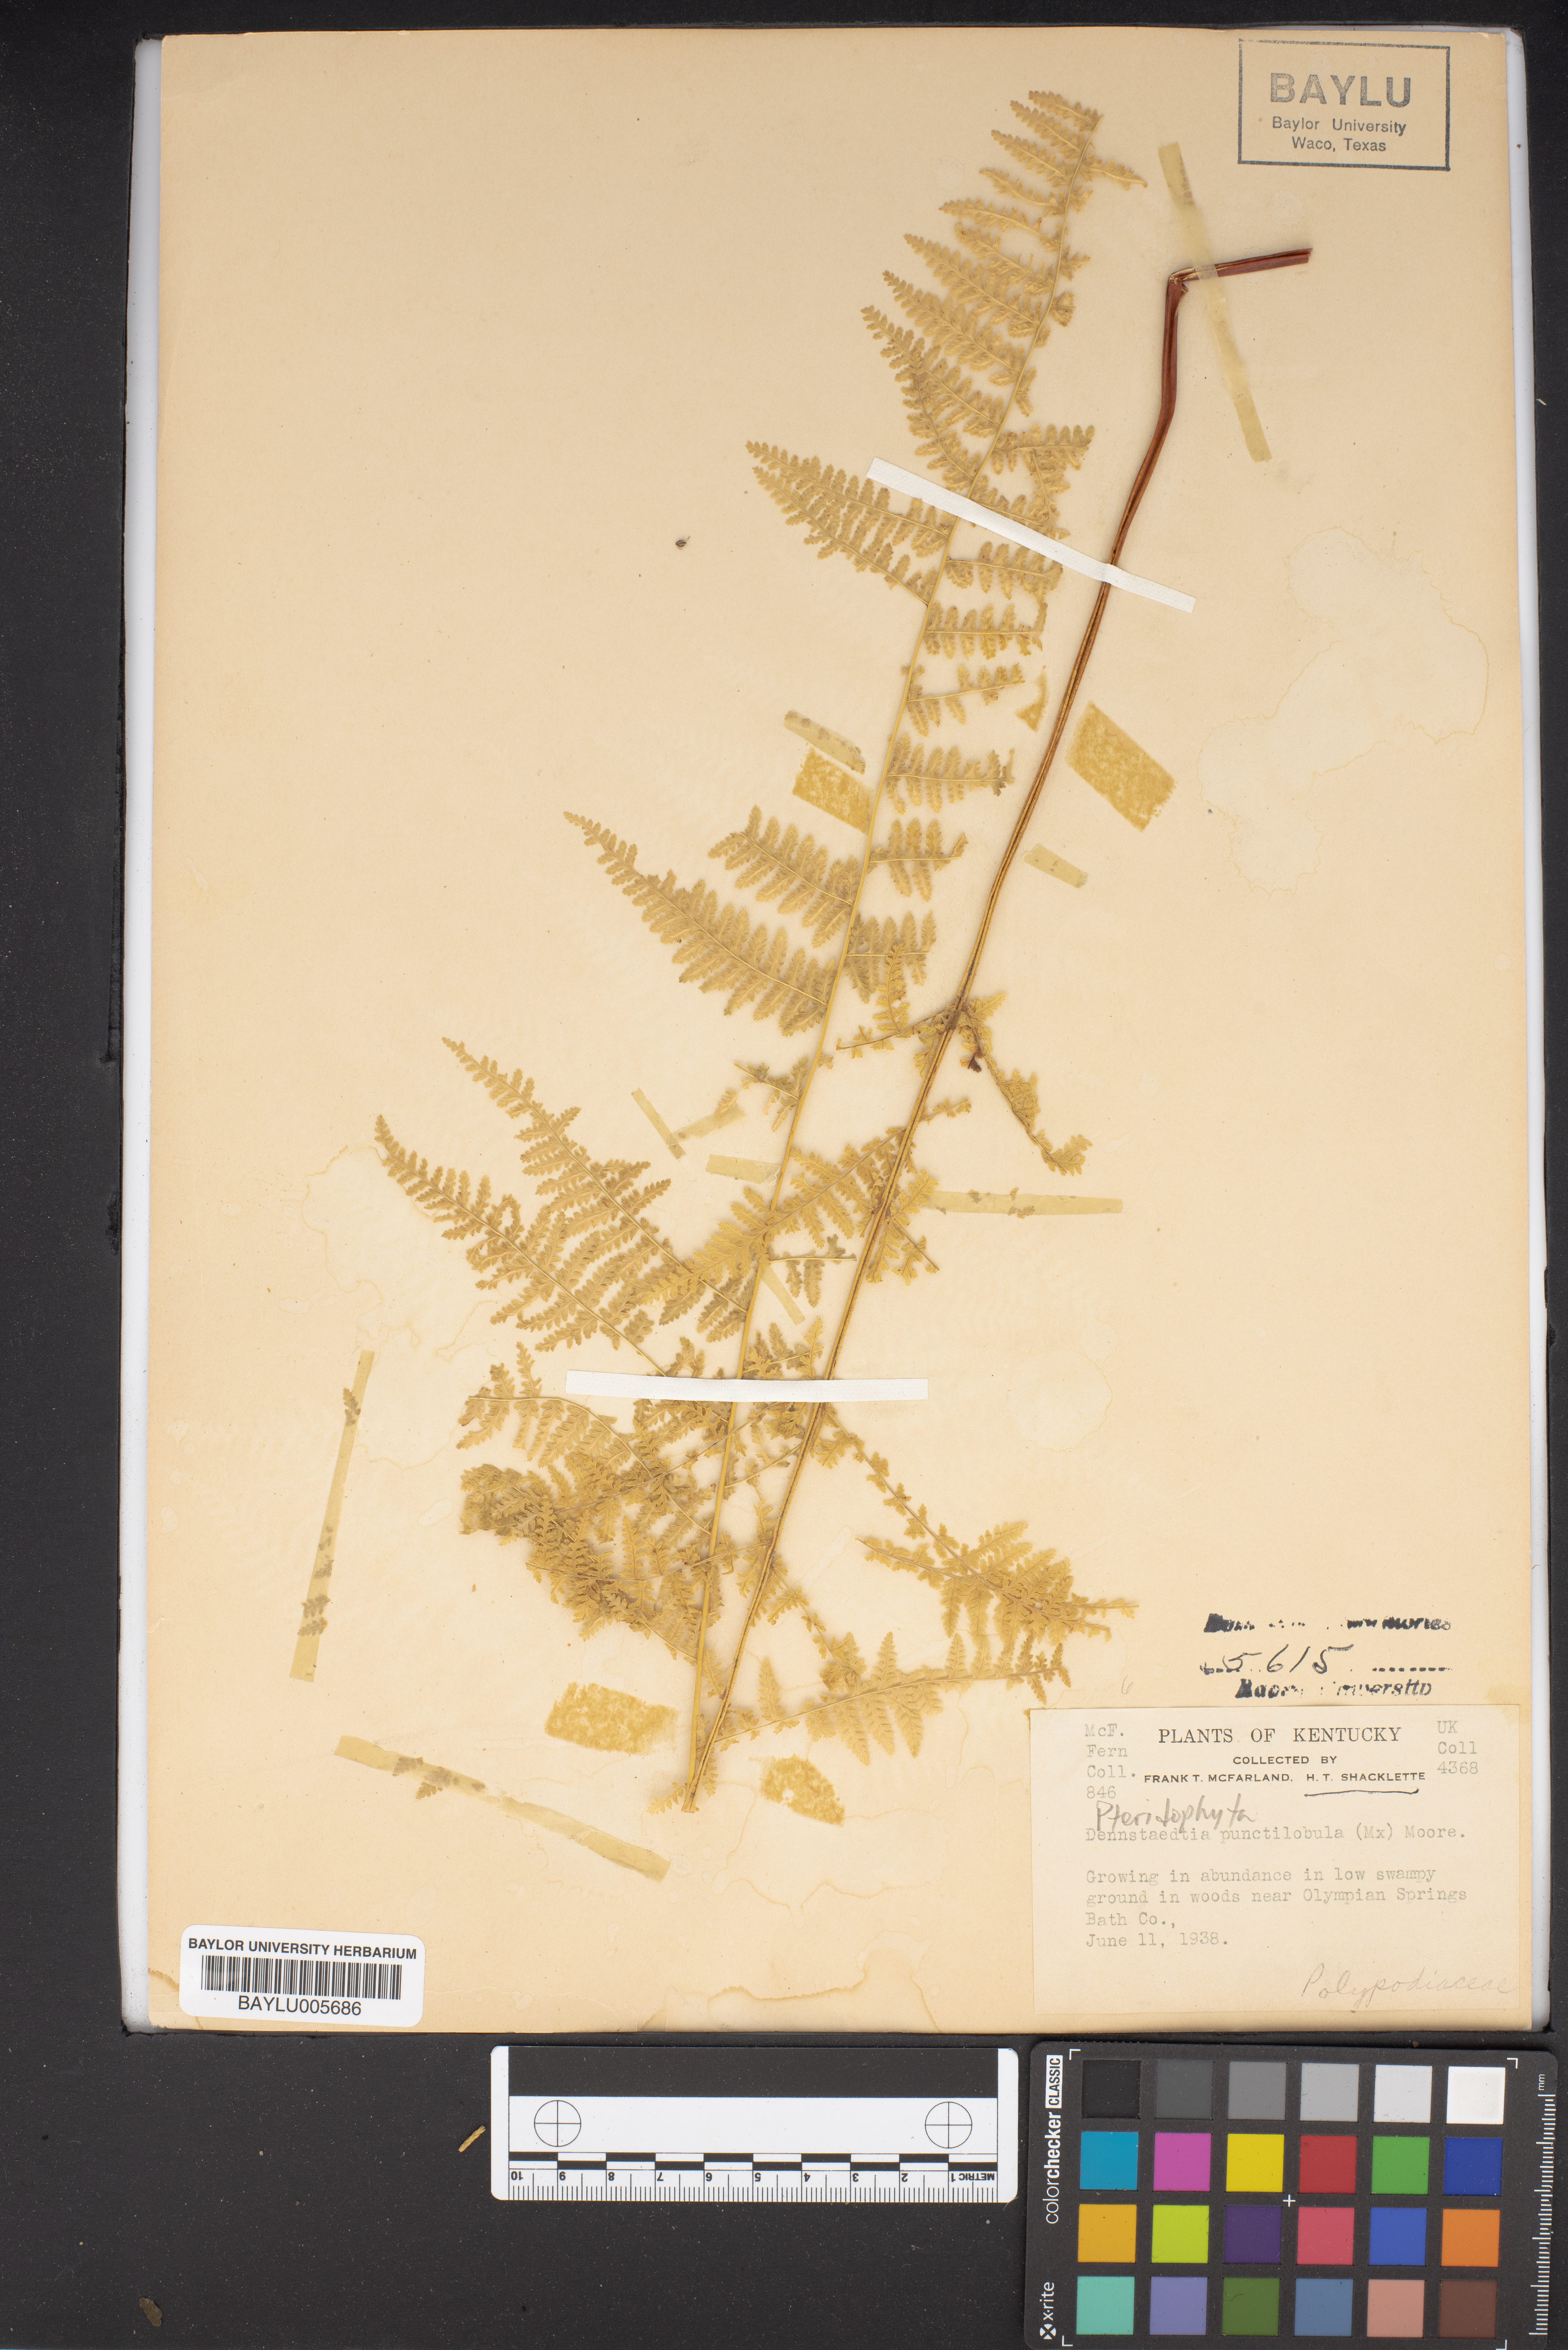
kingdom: Plantae
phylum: Tracheophyta
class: Polypodiopsida
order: Polypodiales
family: Dennstaedtiaceae
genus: Sitobolium
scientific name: Sitobolium punctilobum
